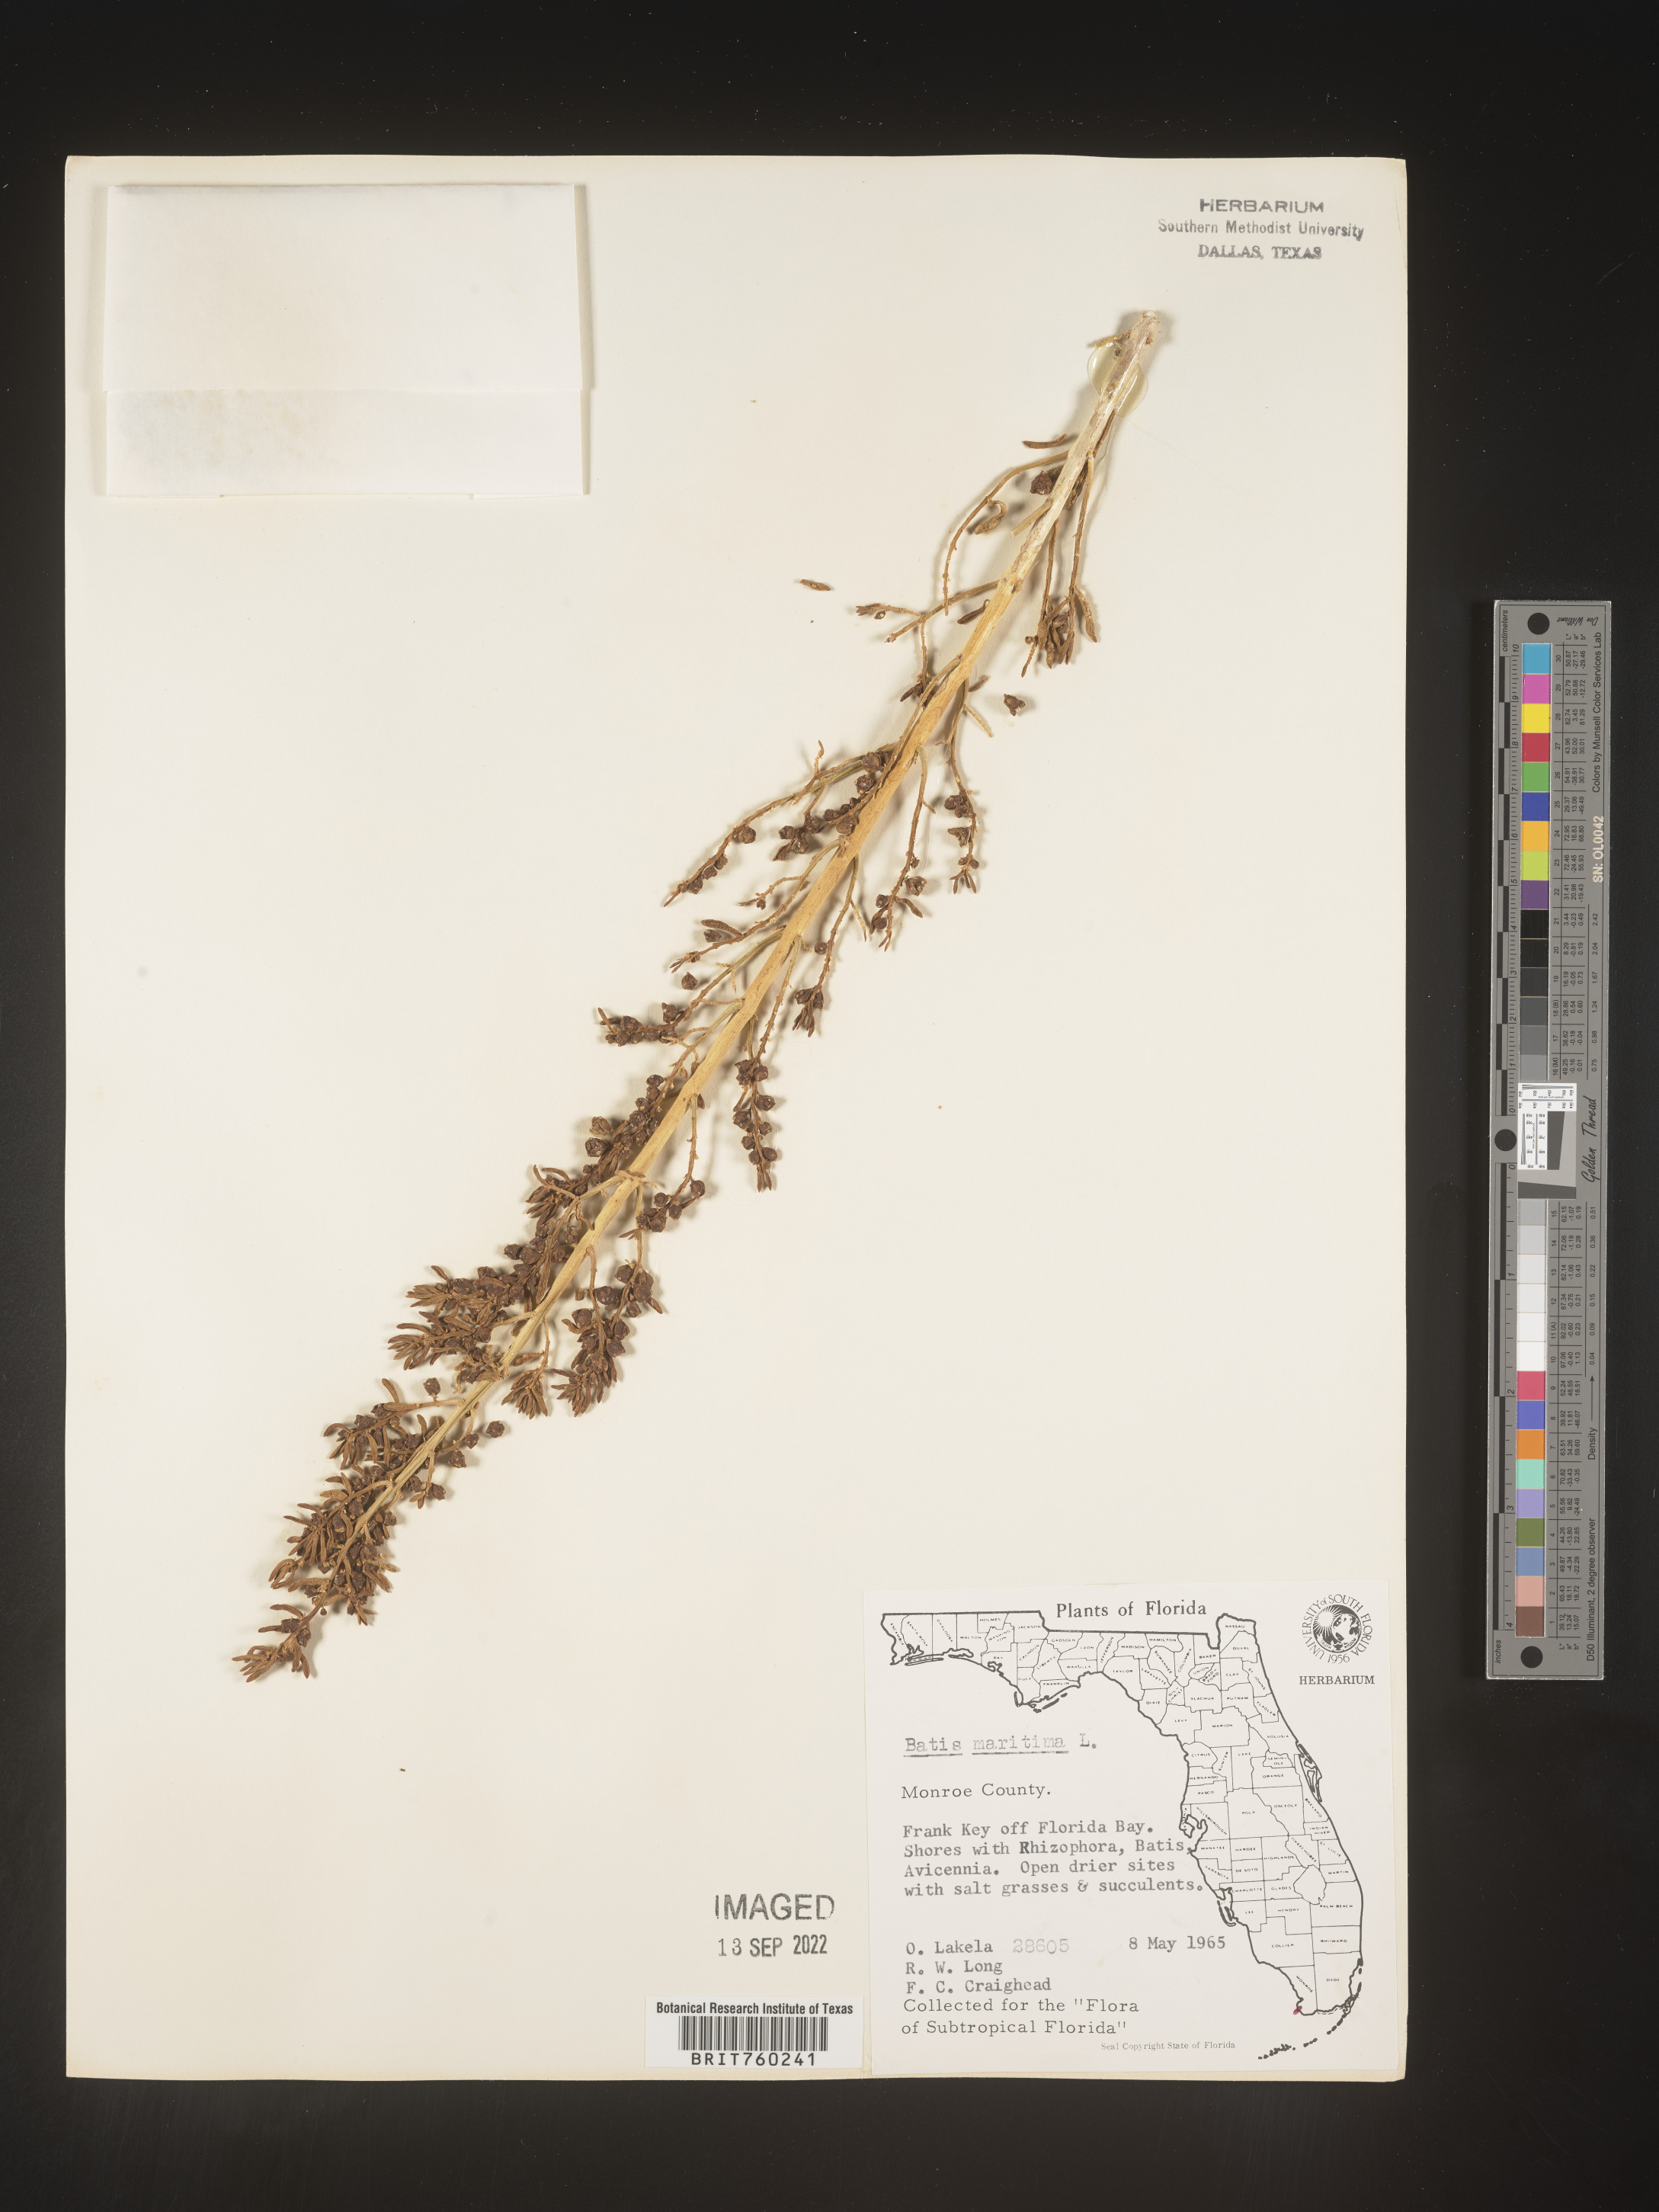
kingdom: Plantae
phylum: Tracheophyta
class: Magnoliopsida
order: Brassicales
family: Bataceae
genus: Batis
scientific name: Batis maritima
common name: Turtleweed
